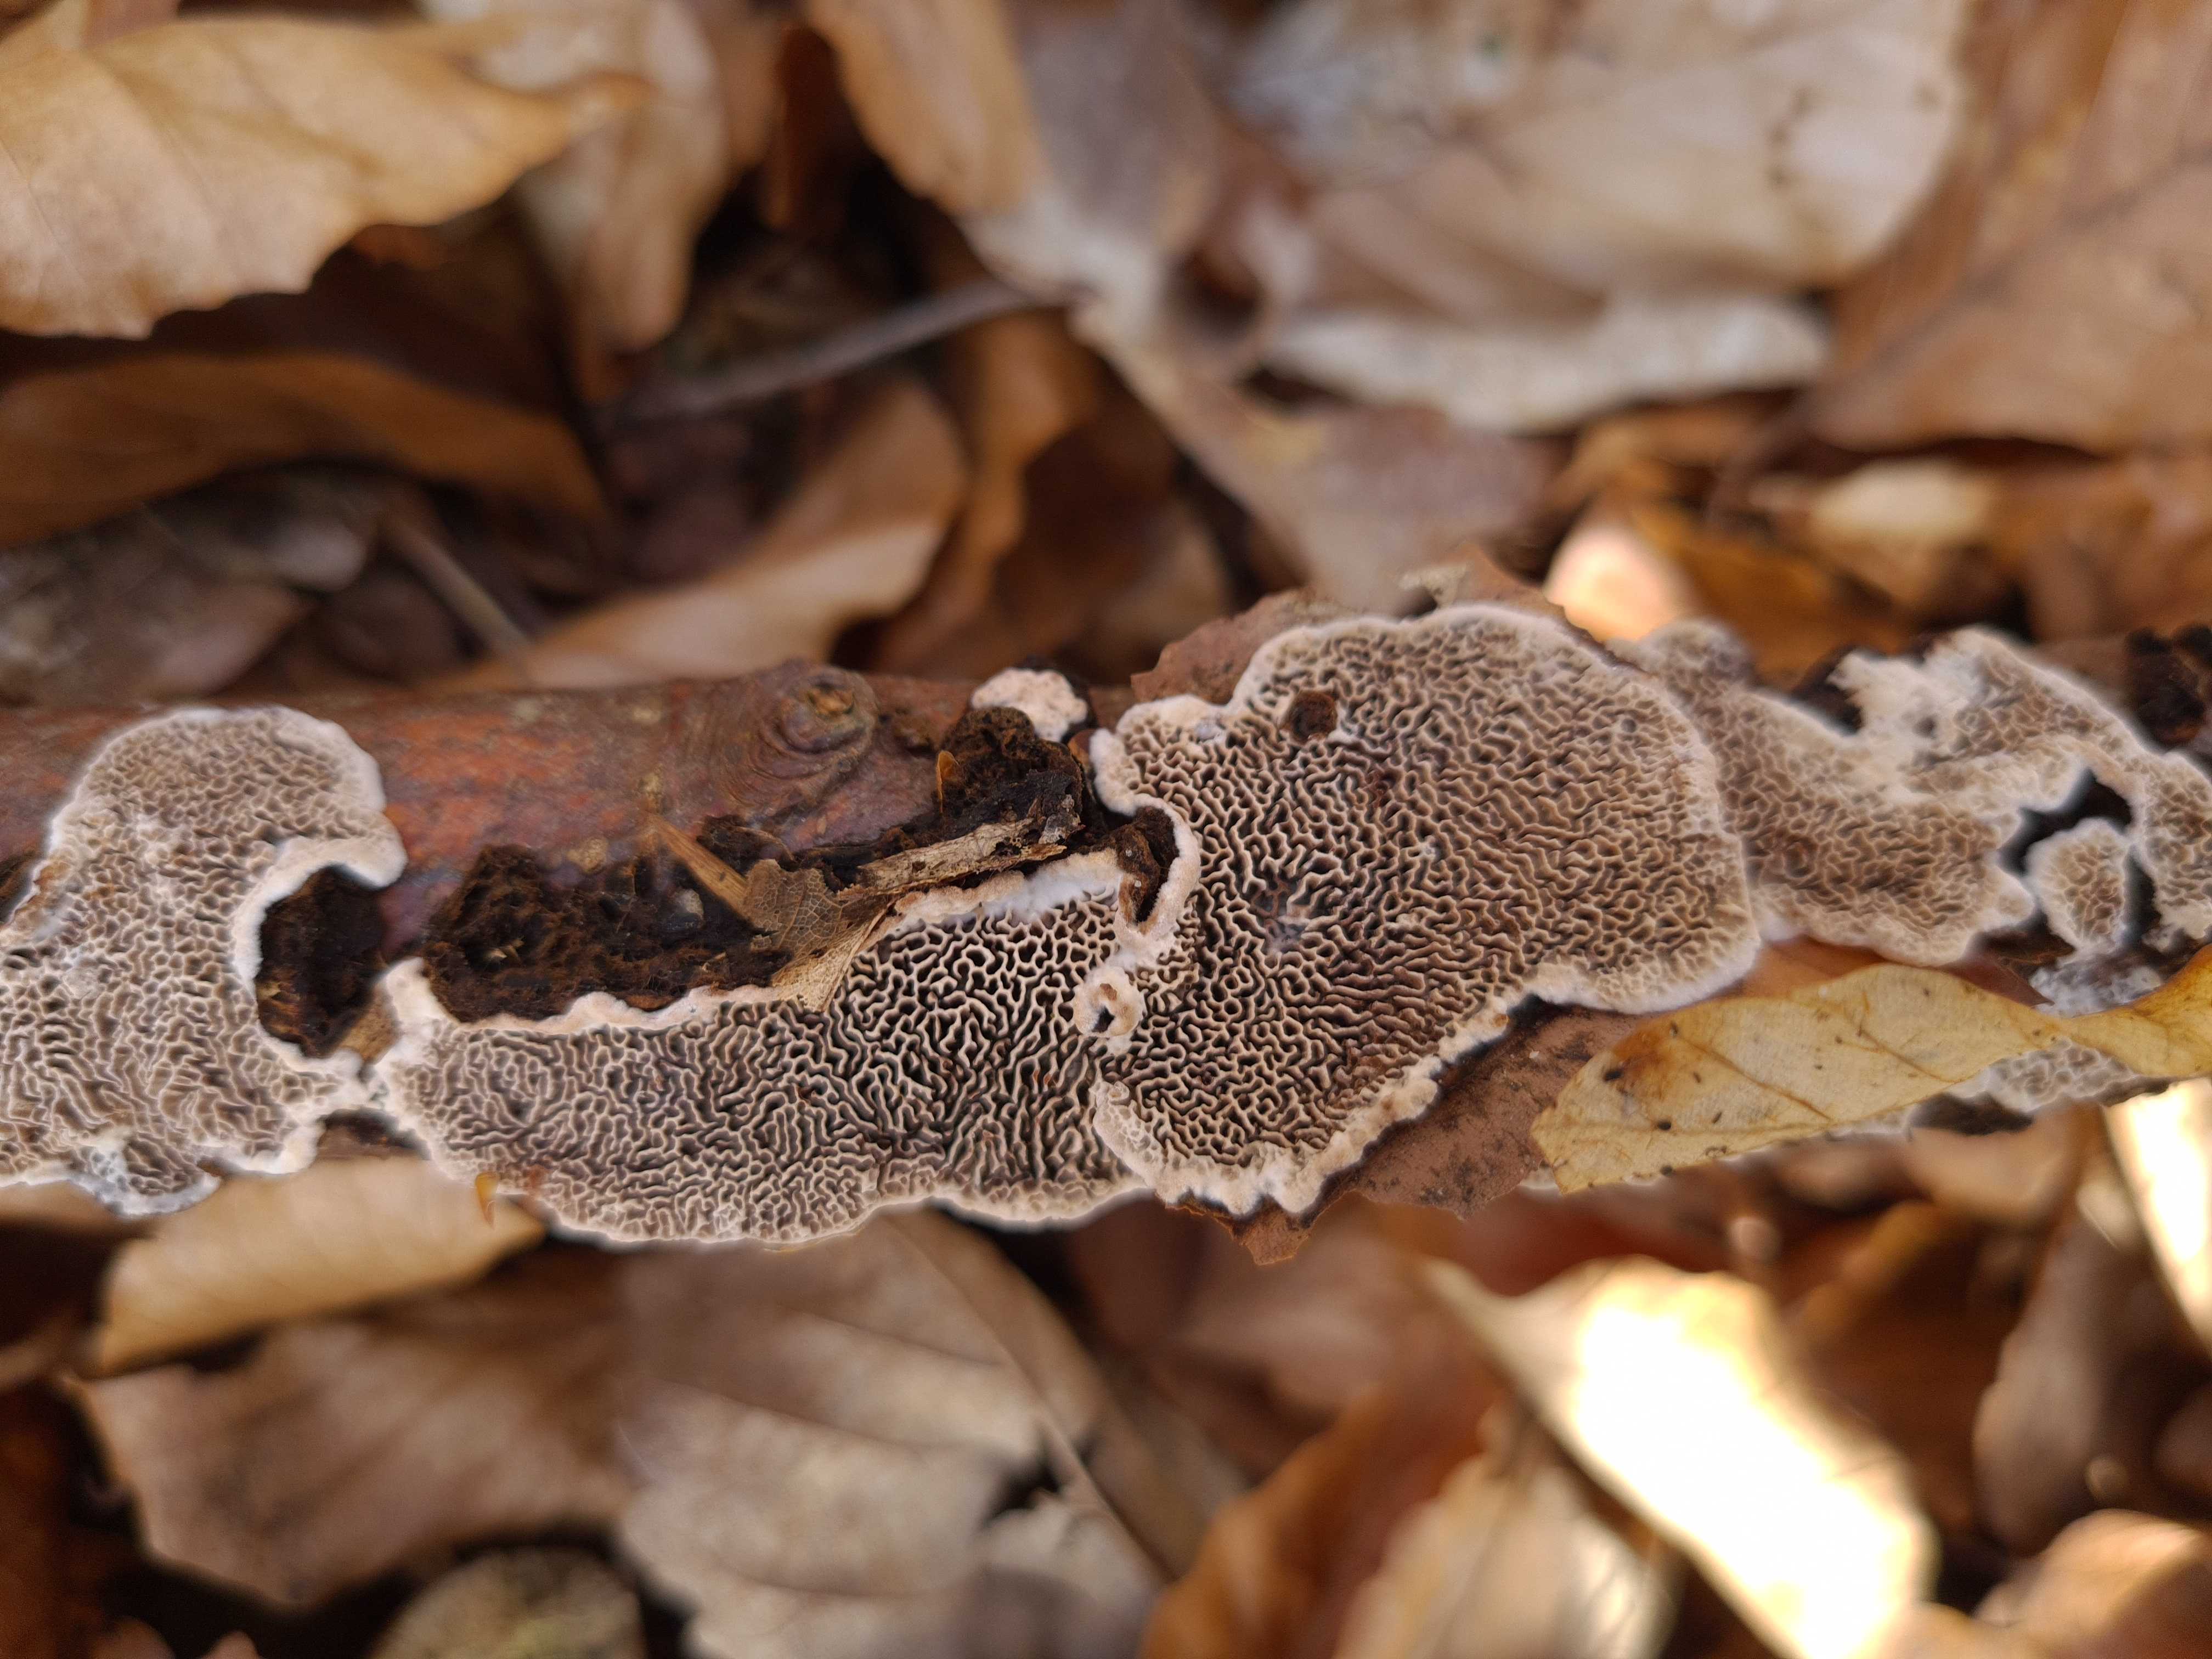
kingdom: Fungi
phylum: Basidiomycota
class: Agaricomycetes
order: Polyporales
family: Polyporaceae
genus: Podofomes
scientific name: Podofomes mollis
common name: blød begporesvamp
